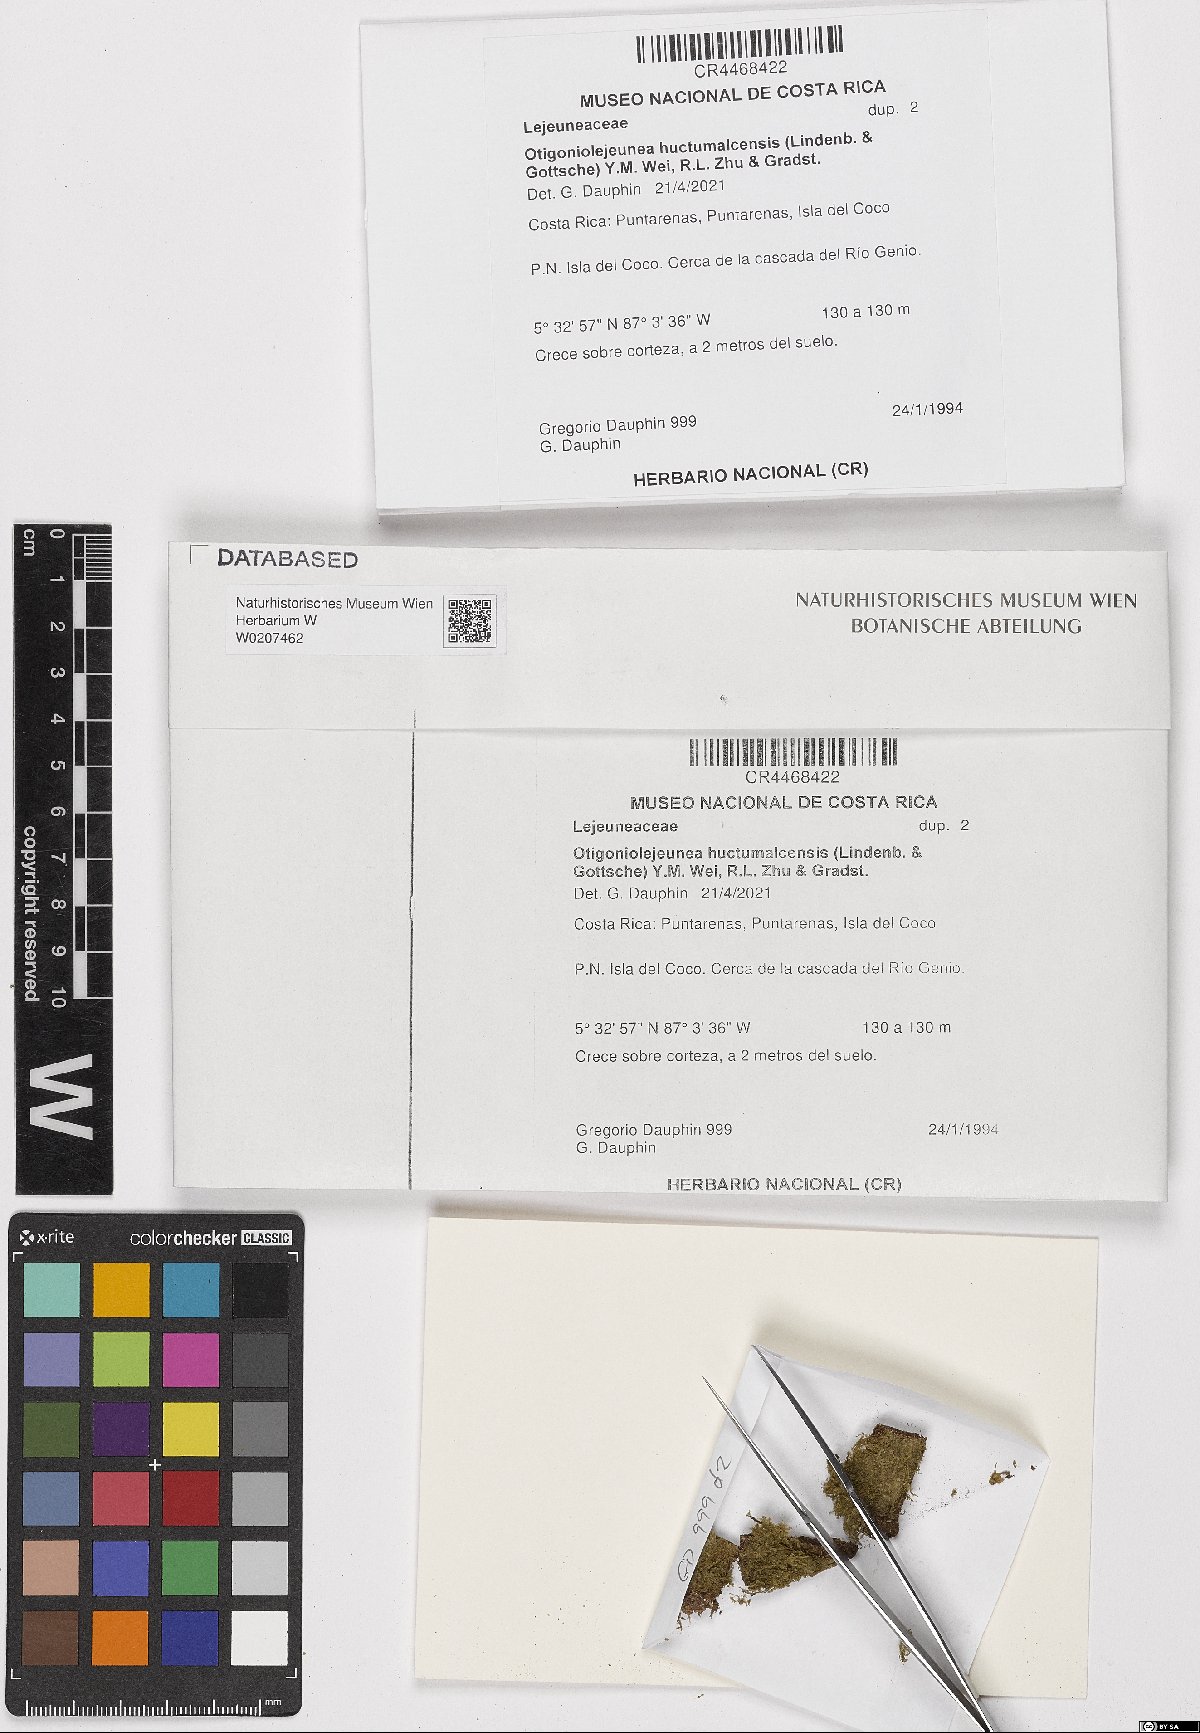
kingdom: Plantae
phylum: Marchantiophyta
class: Jungermanniopsida
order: Porellales
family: Lejeuneaceae
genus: Otigoniolejeunea
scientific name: Otigoniolejeunea huctumalcensis
